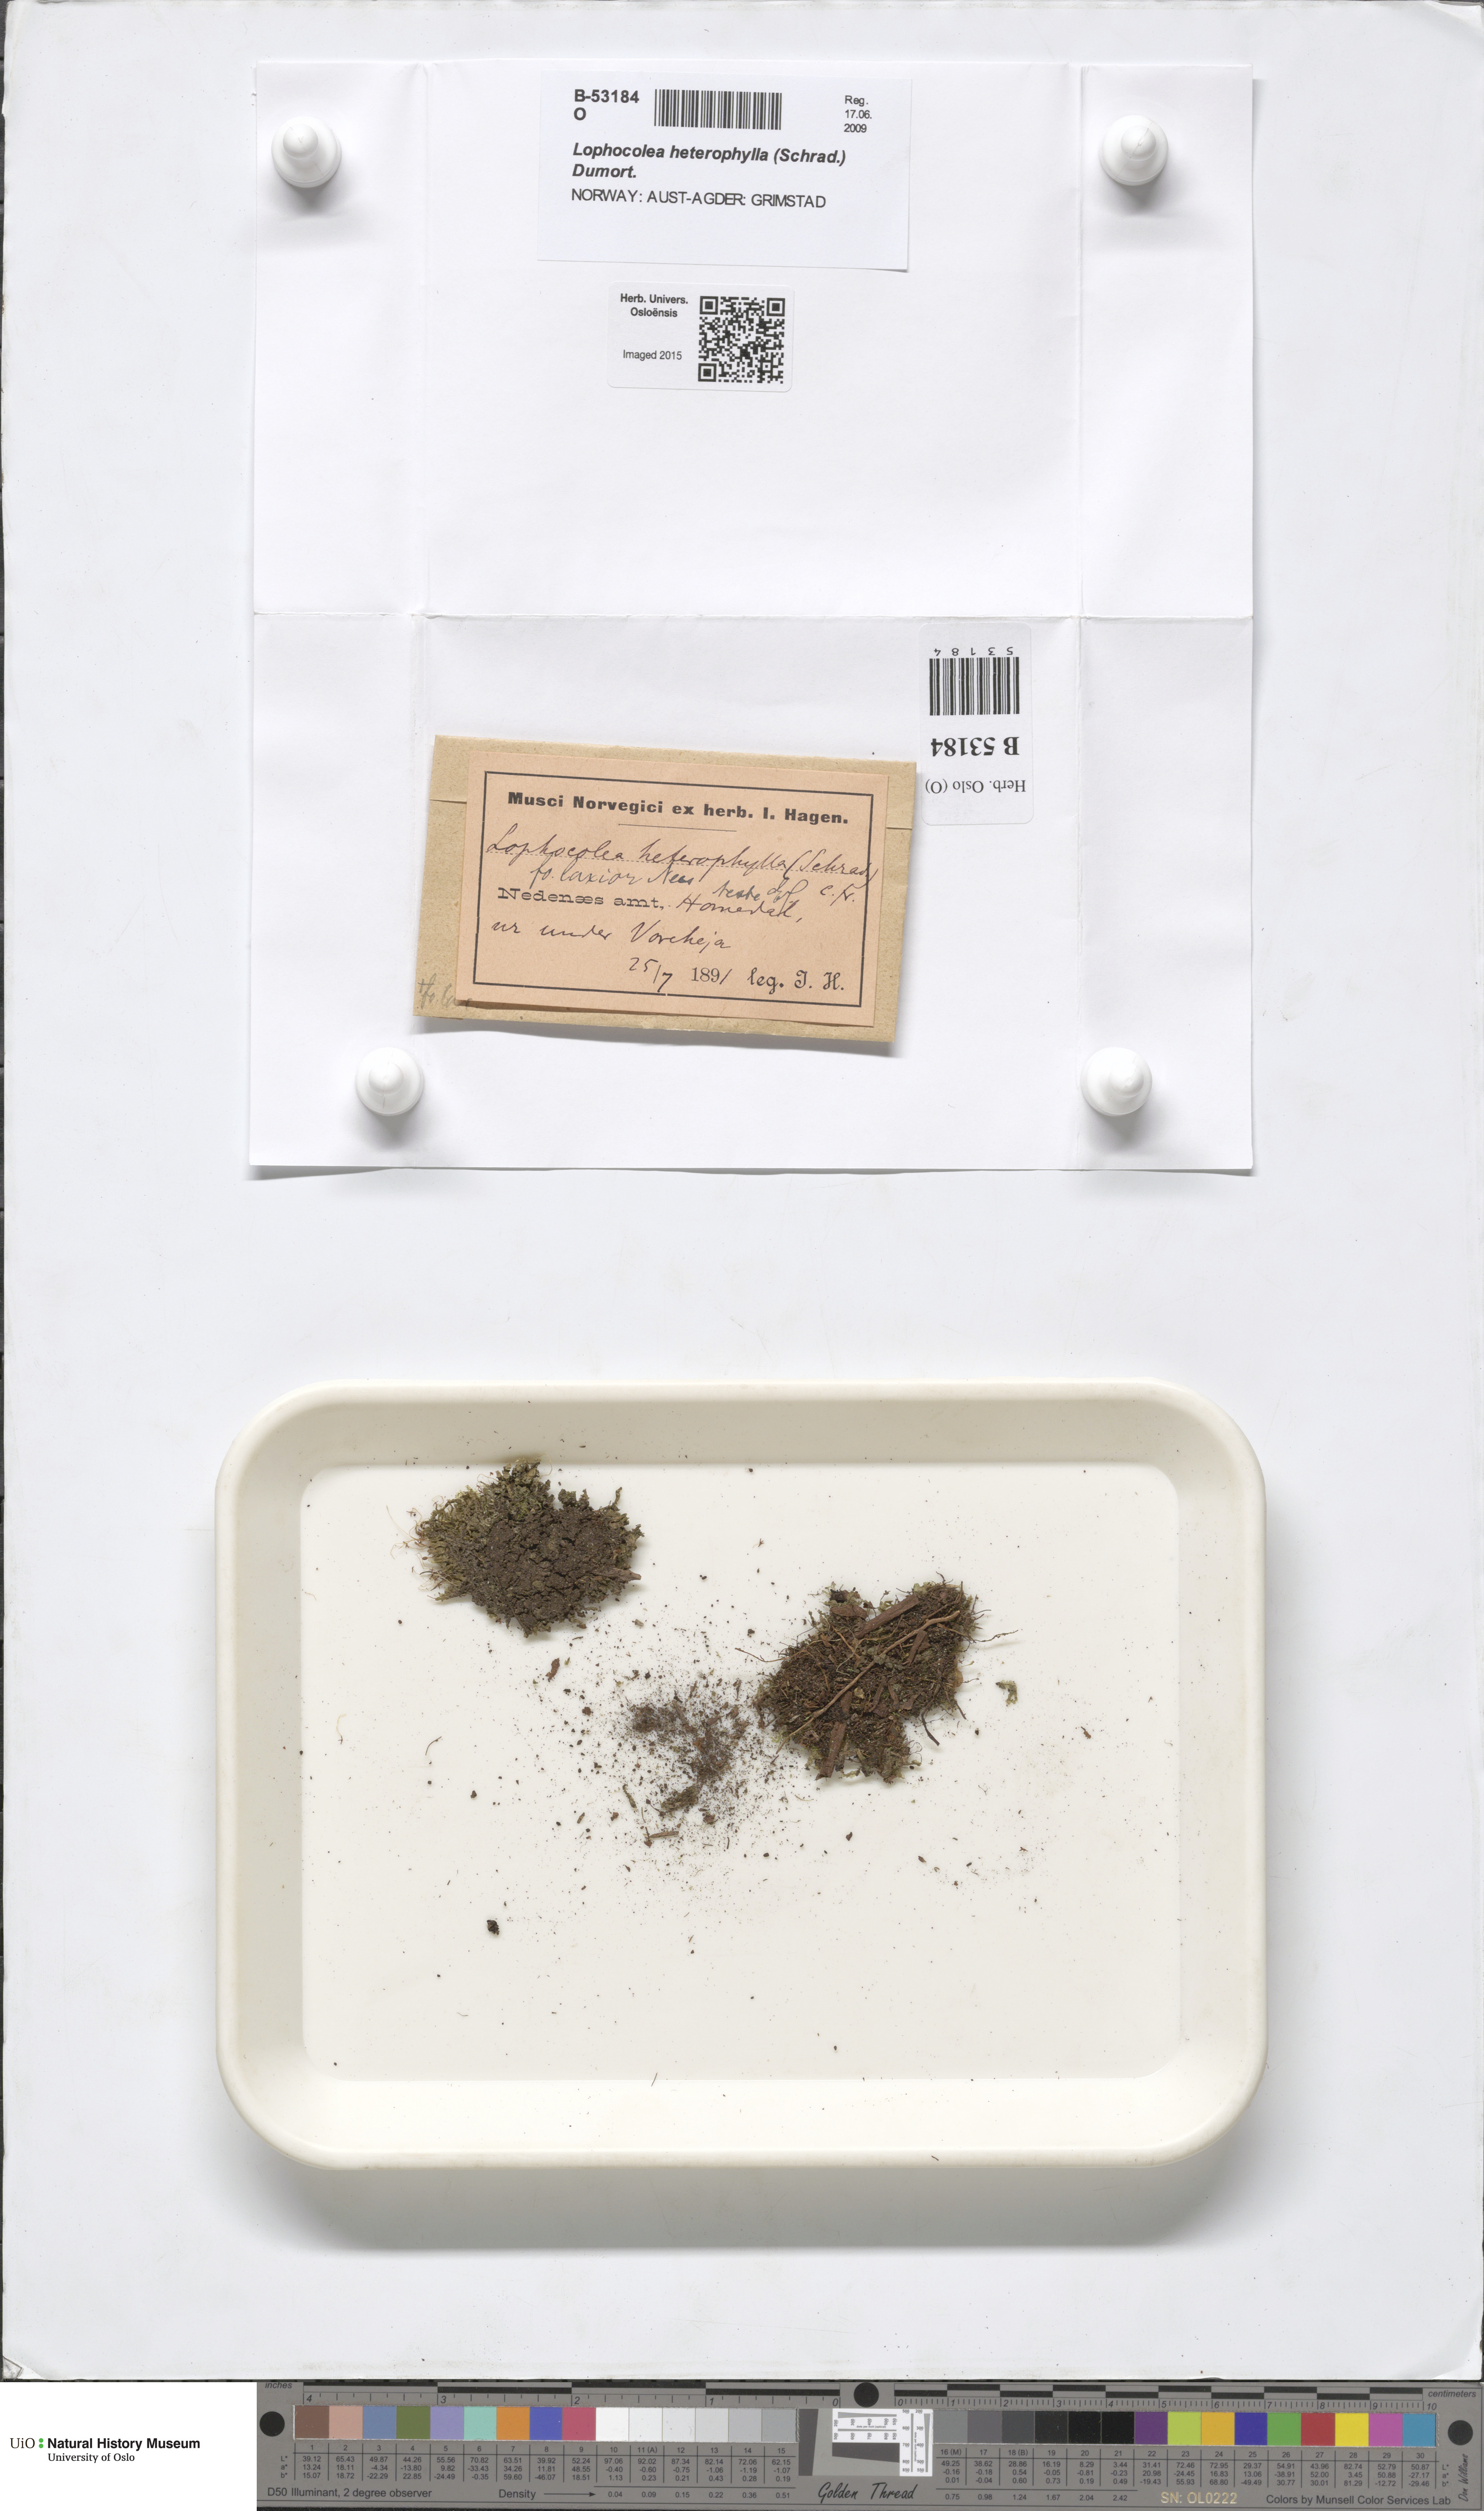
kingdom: Plantae
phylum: Marchantiophyta
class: Jungermanniopsida
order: Jungermanniales
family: Lophocoleaceae
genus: Lophocolea
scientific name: Lophocolea heterophylla
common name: Variable-leaved crestwort
